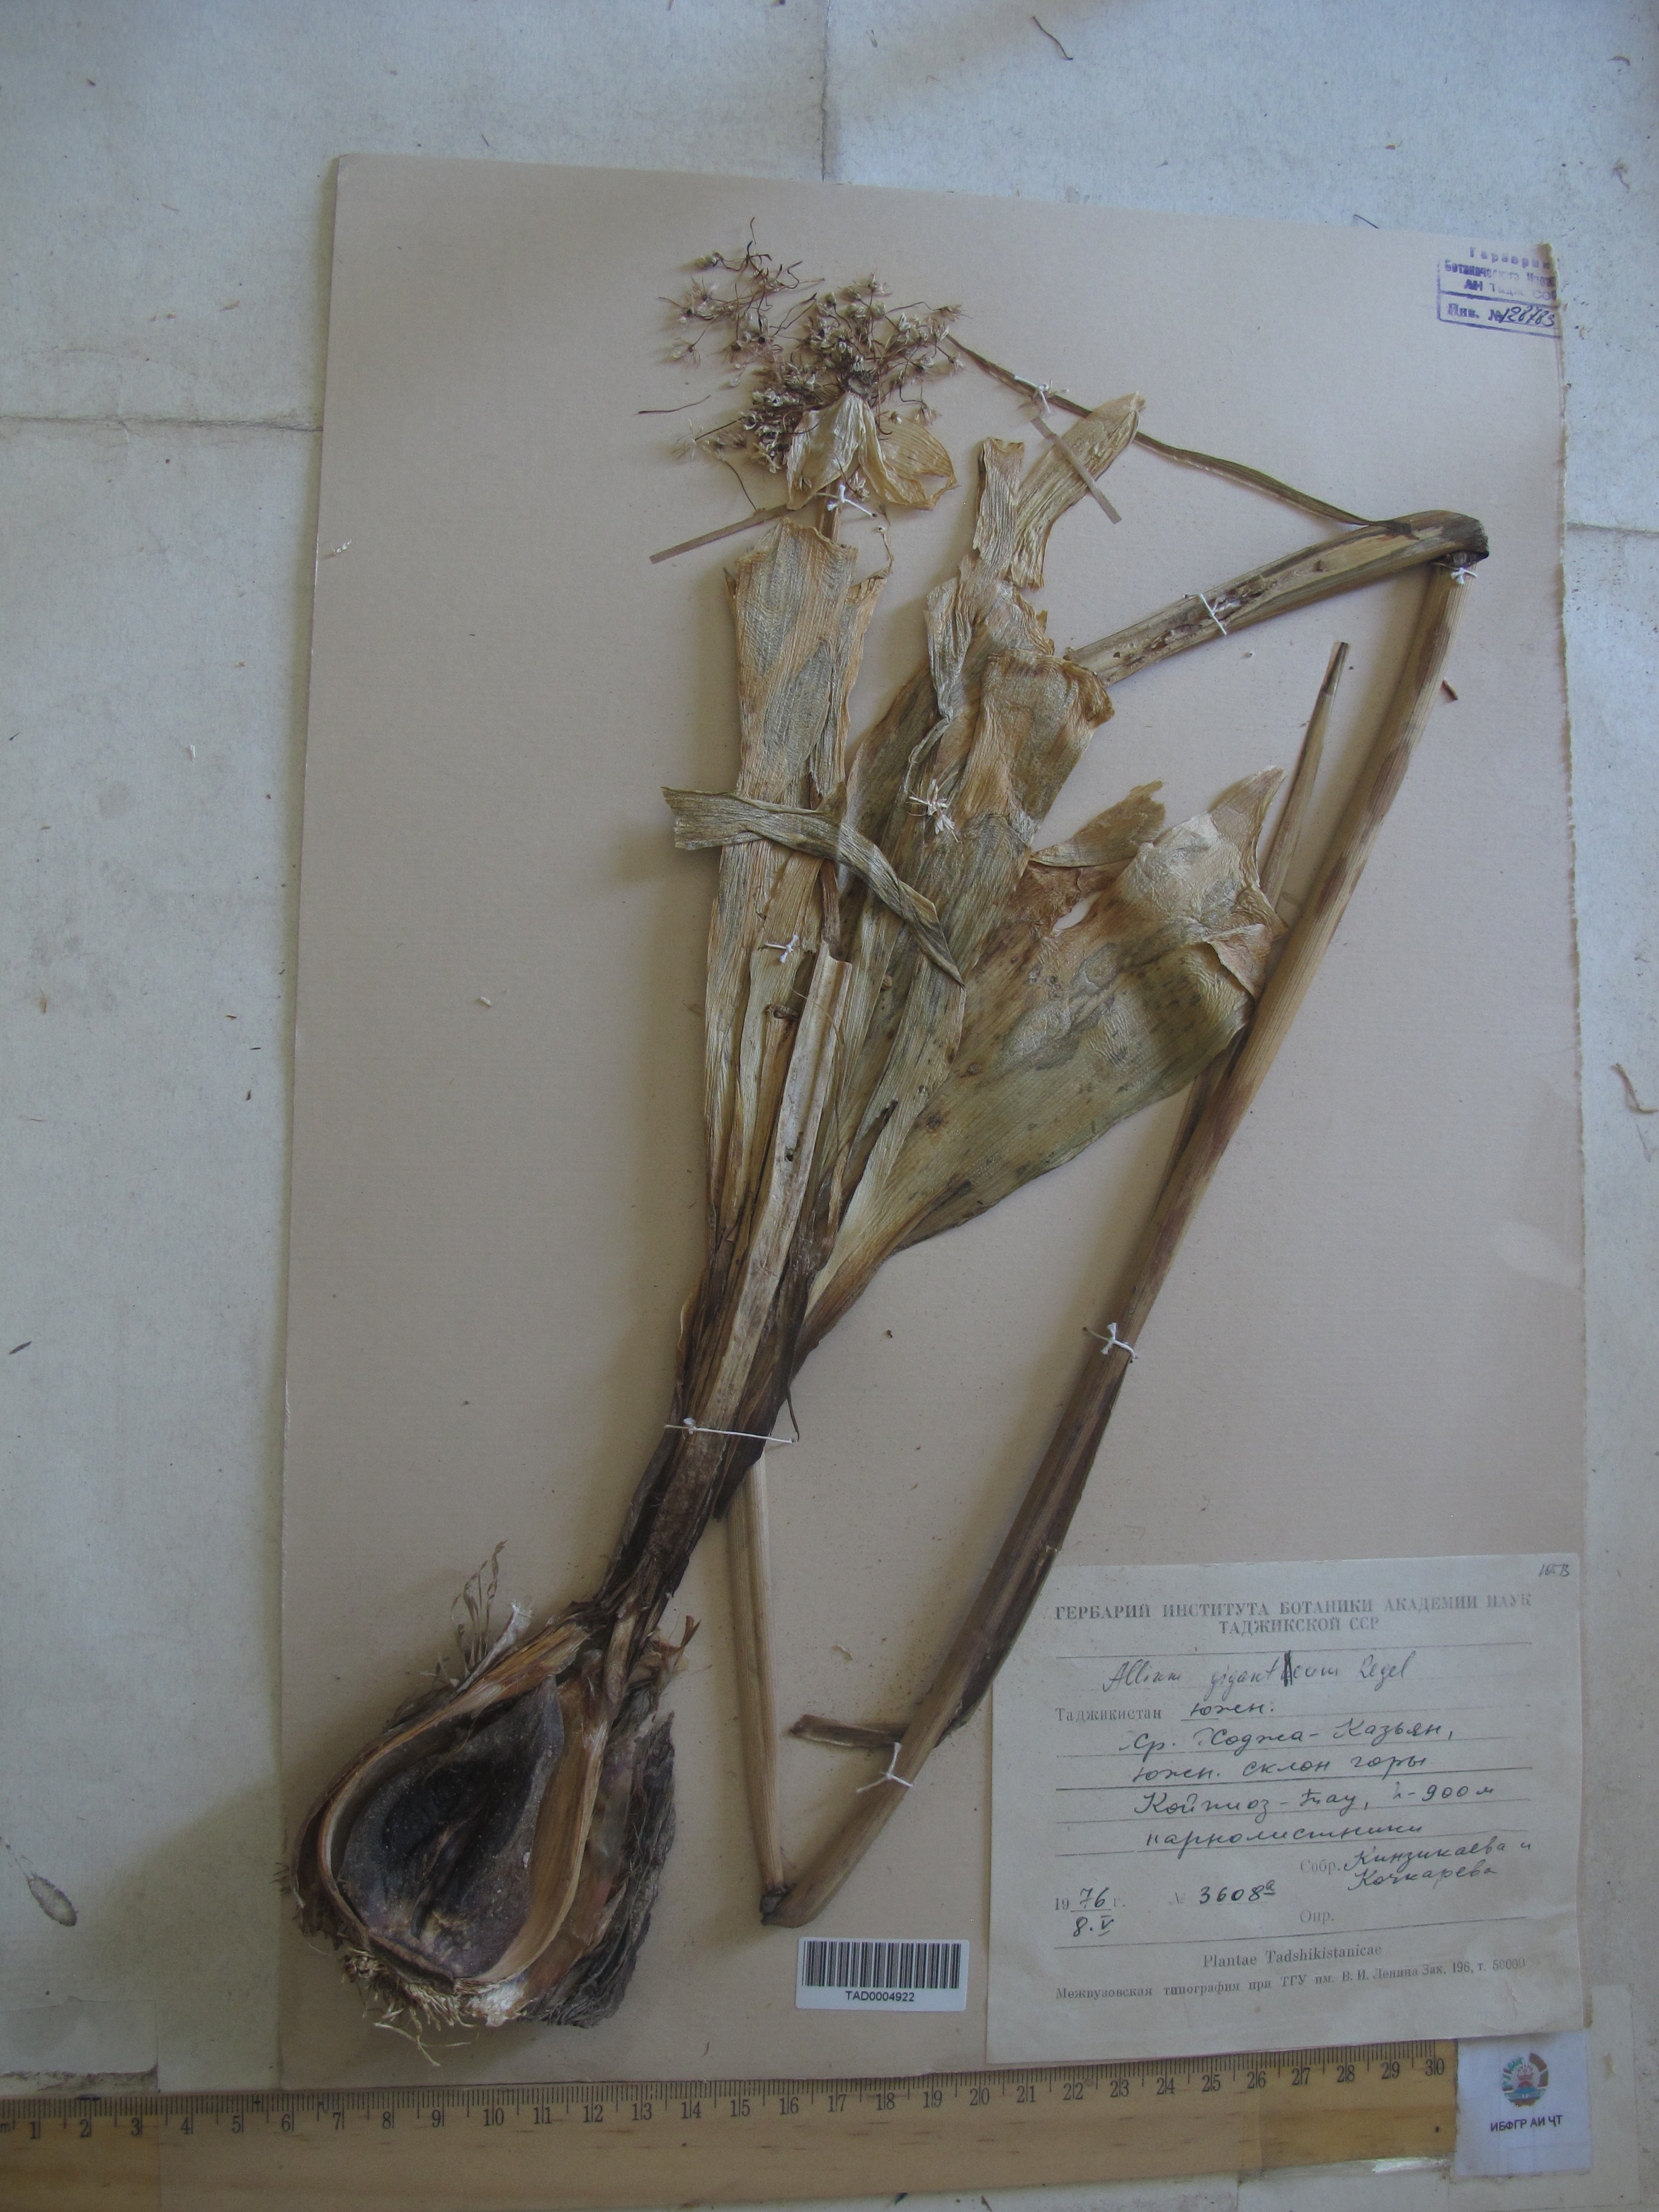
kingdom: Plantae
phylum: Tracheophyta
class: Liliopsida
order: Asparagales
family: Amaryllidaceae
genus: Allium
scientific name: Allium giganteum
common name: Giant onion
